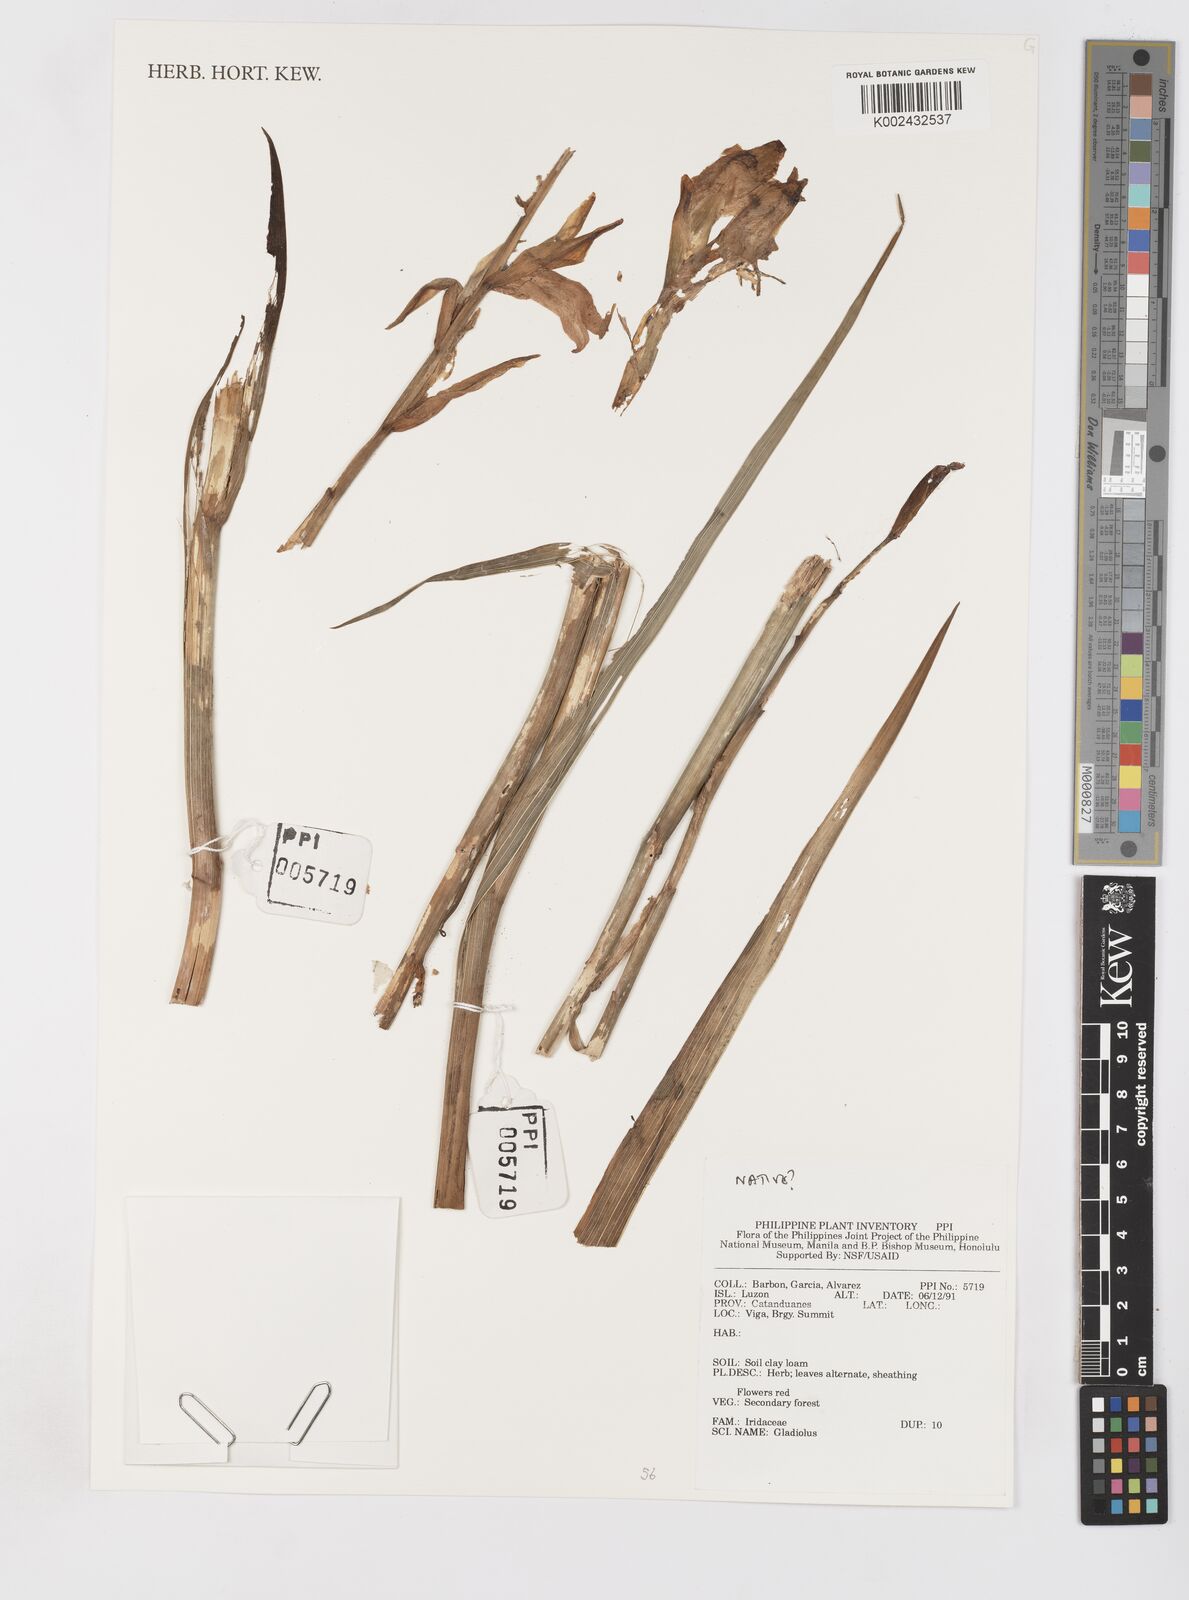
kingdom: Plantae
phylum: Tracheophyta
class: Liliopsida
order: Asparagales
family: Iridaceae
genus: Gladiolus
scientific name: Gladiolus
